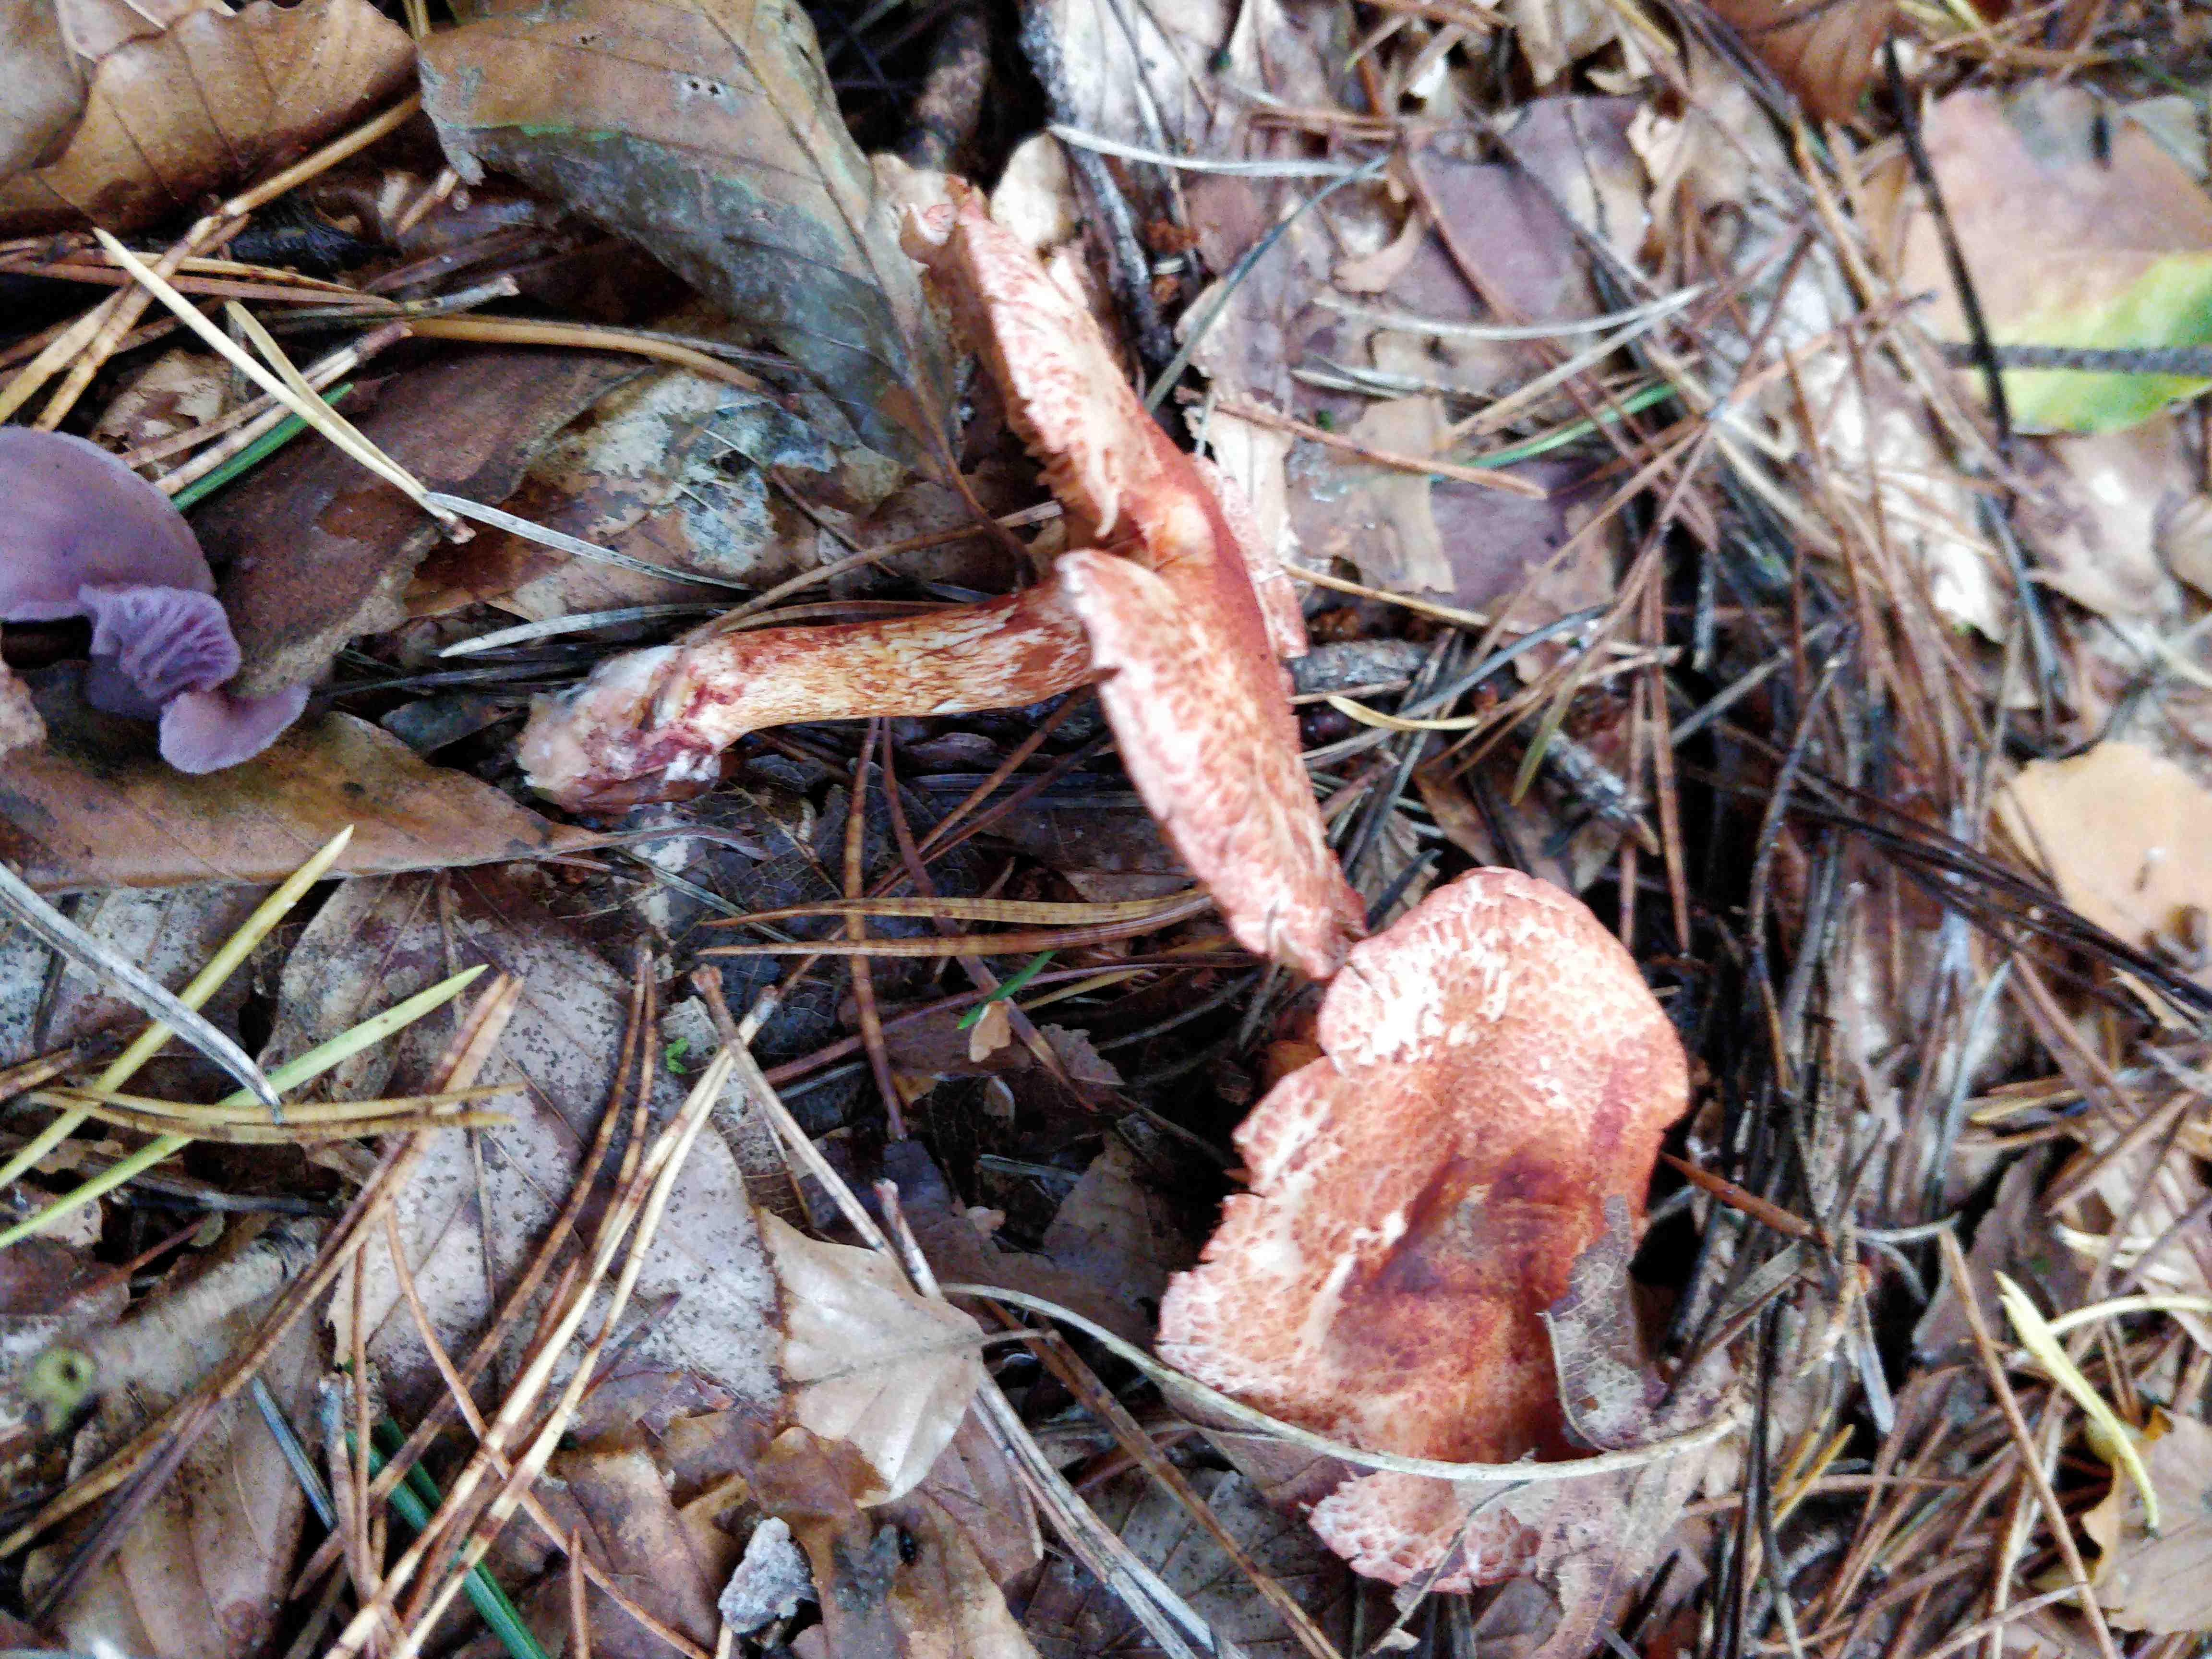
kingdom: Fungi
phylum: Basidiomycota
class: Agaricomycetes
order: Agaricales
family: Cortinariaceae
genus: Cortinarius
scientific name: Cortinarius bolaris
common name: cinnoberskællet slørhat
